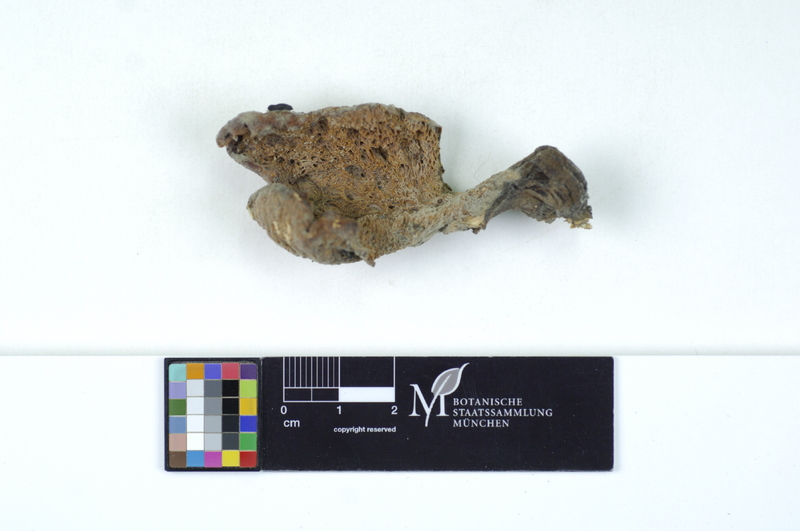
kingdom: Plantae
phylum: Tracheophyta
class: Magnoliopsida
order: Malpighiales
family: Salicaceae
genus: Populus
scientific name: Populus
